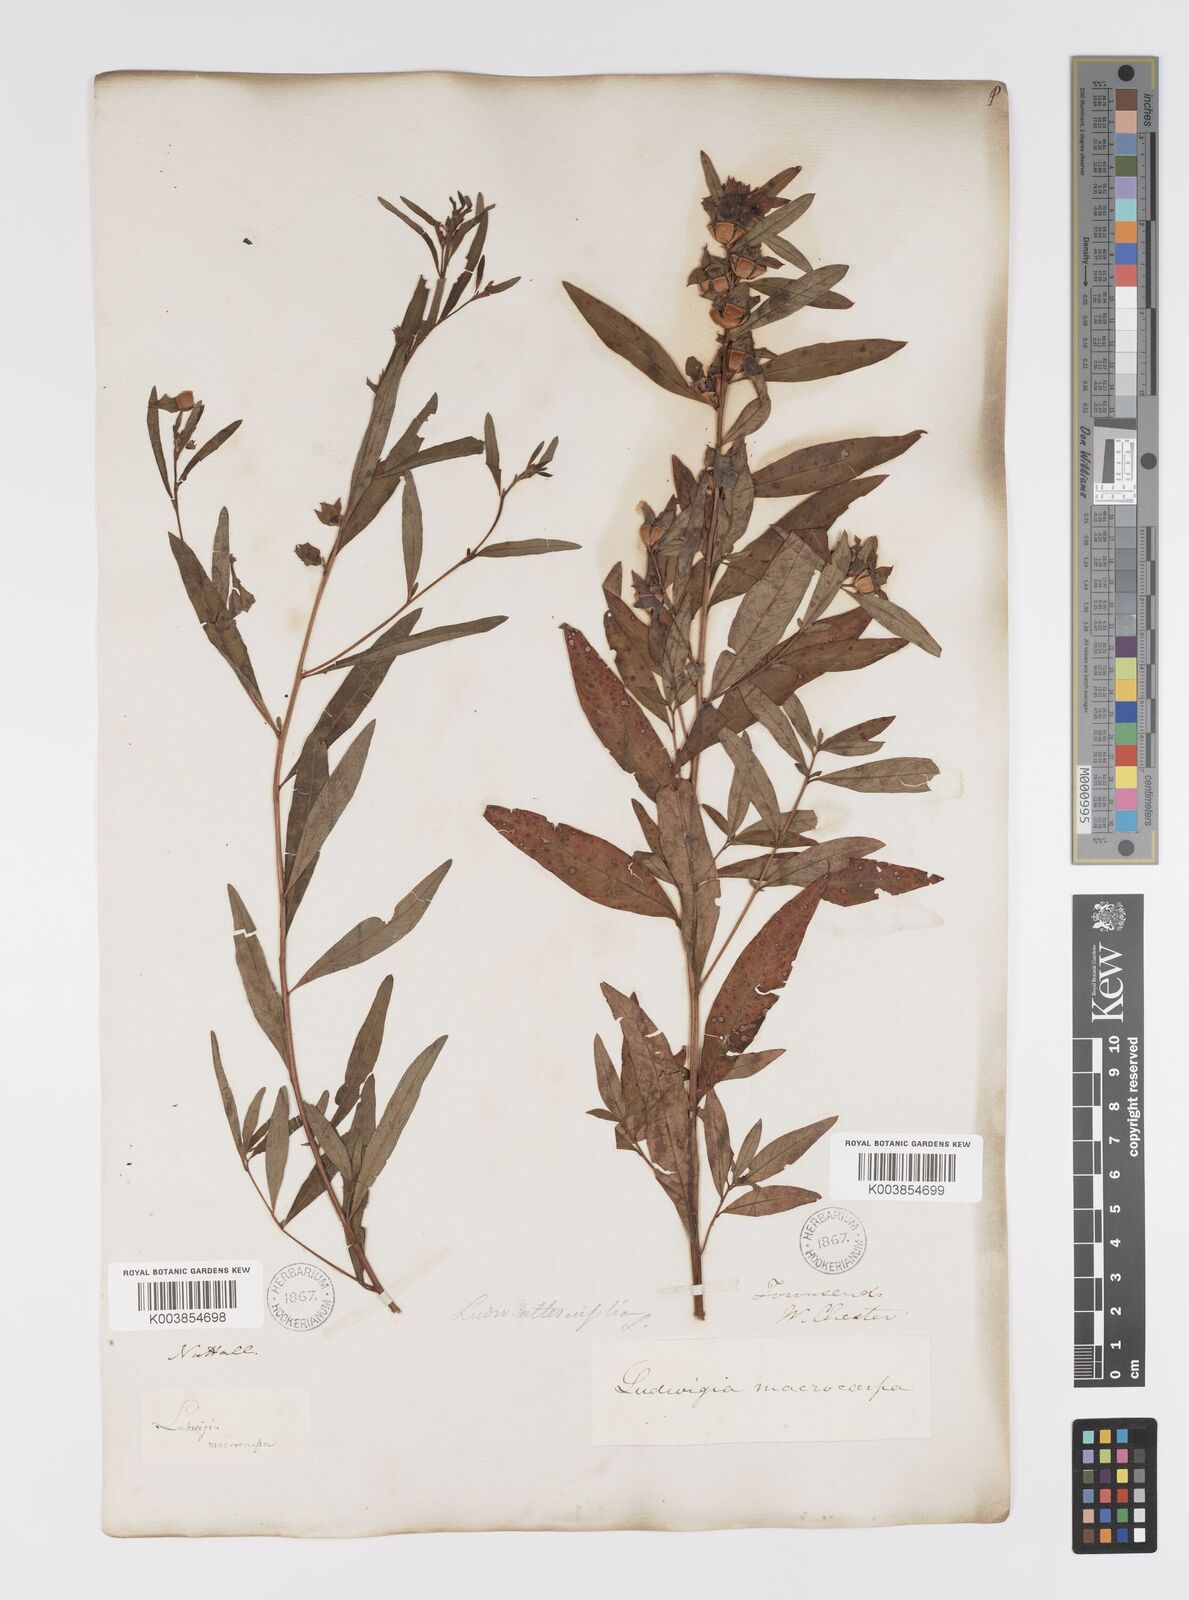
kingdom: Plantae
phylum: Tracheophyta
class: Magnoliopsida
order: Myrtales
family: Onagraceae
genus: Ludwigia
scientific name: Ludwigia alternifolia
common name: Rattlebox
